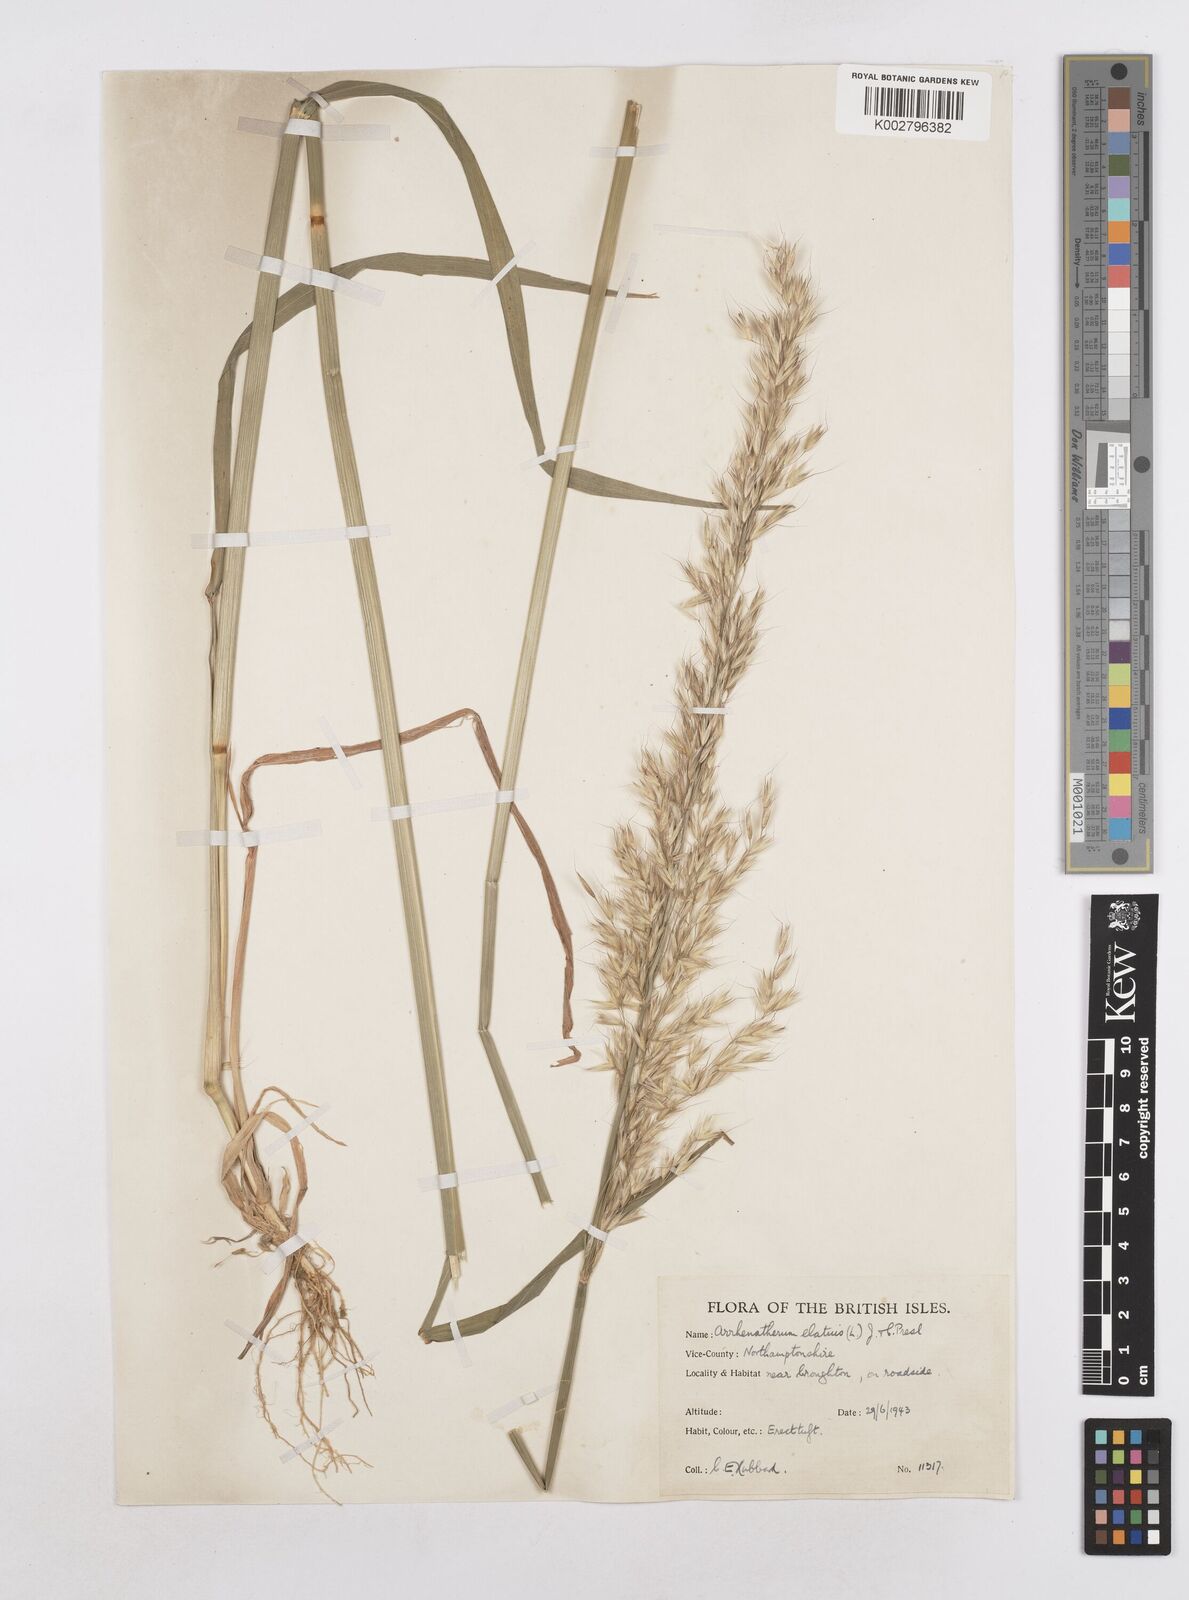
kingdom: Plantae
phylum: Tracheophyta
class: Liliopsida
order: Poales
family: Poaceae
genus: Arrhenatherum
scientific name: Arrhenatherum elatius
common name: Tall oatgrass
